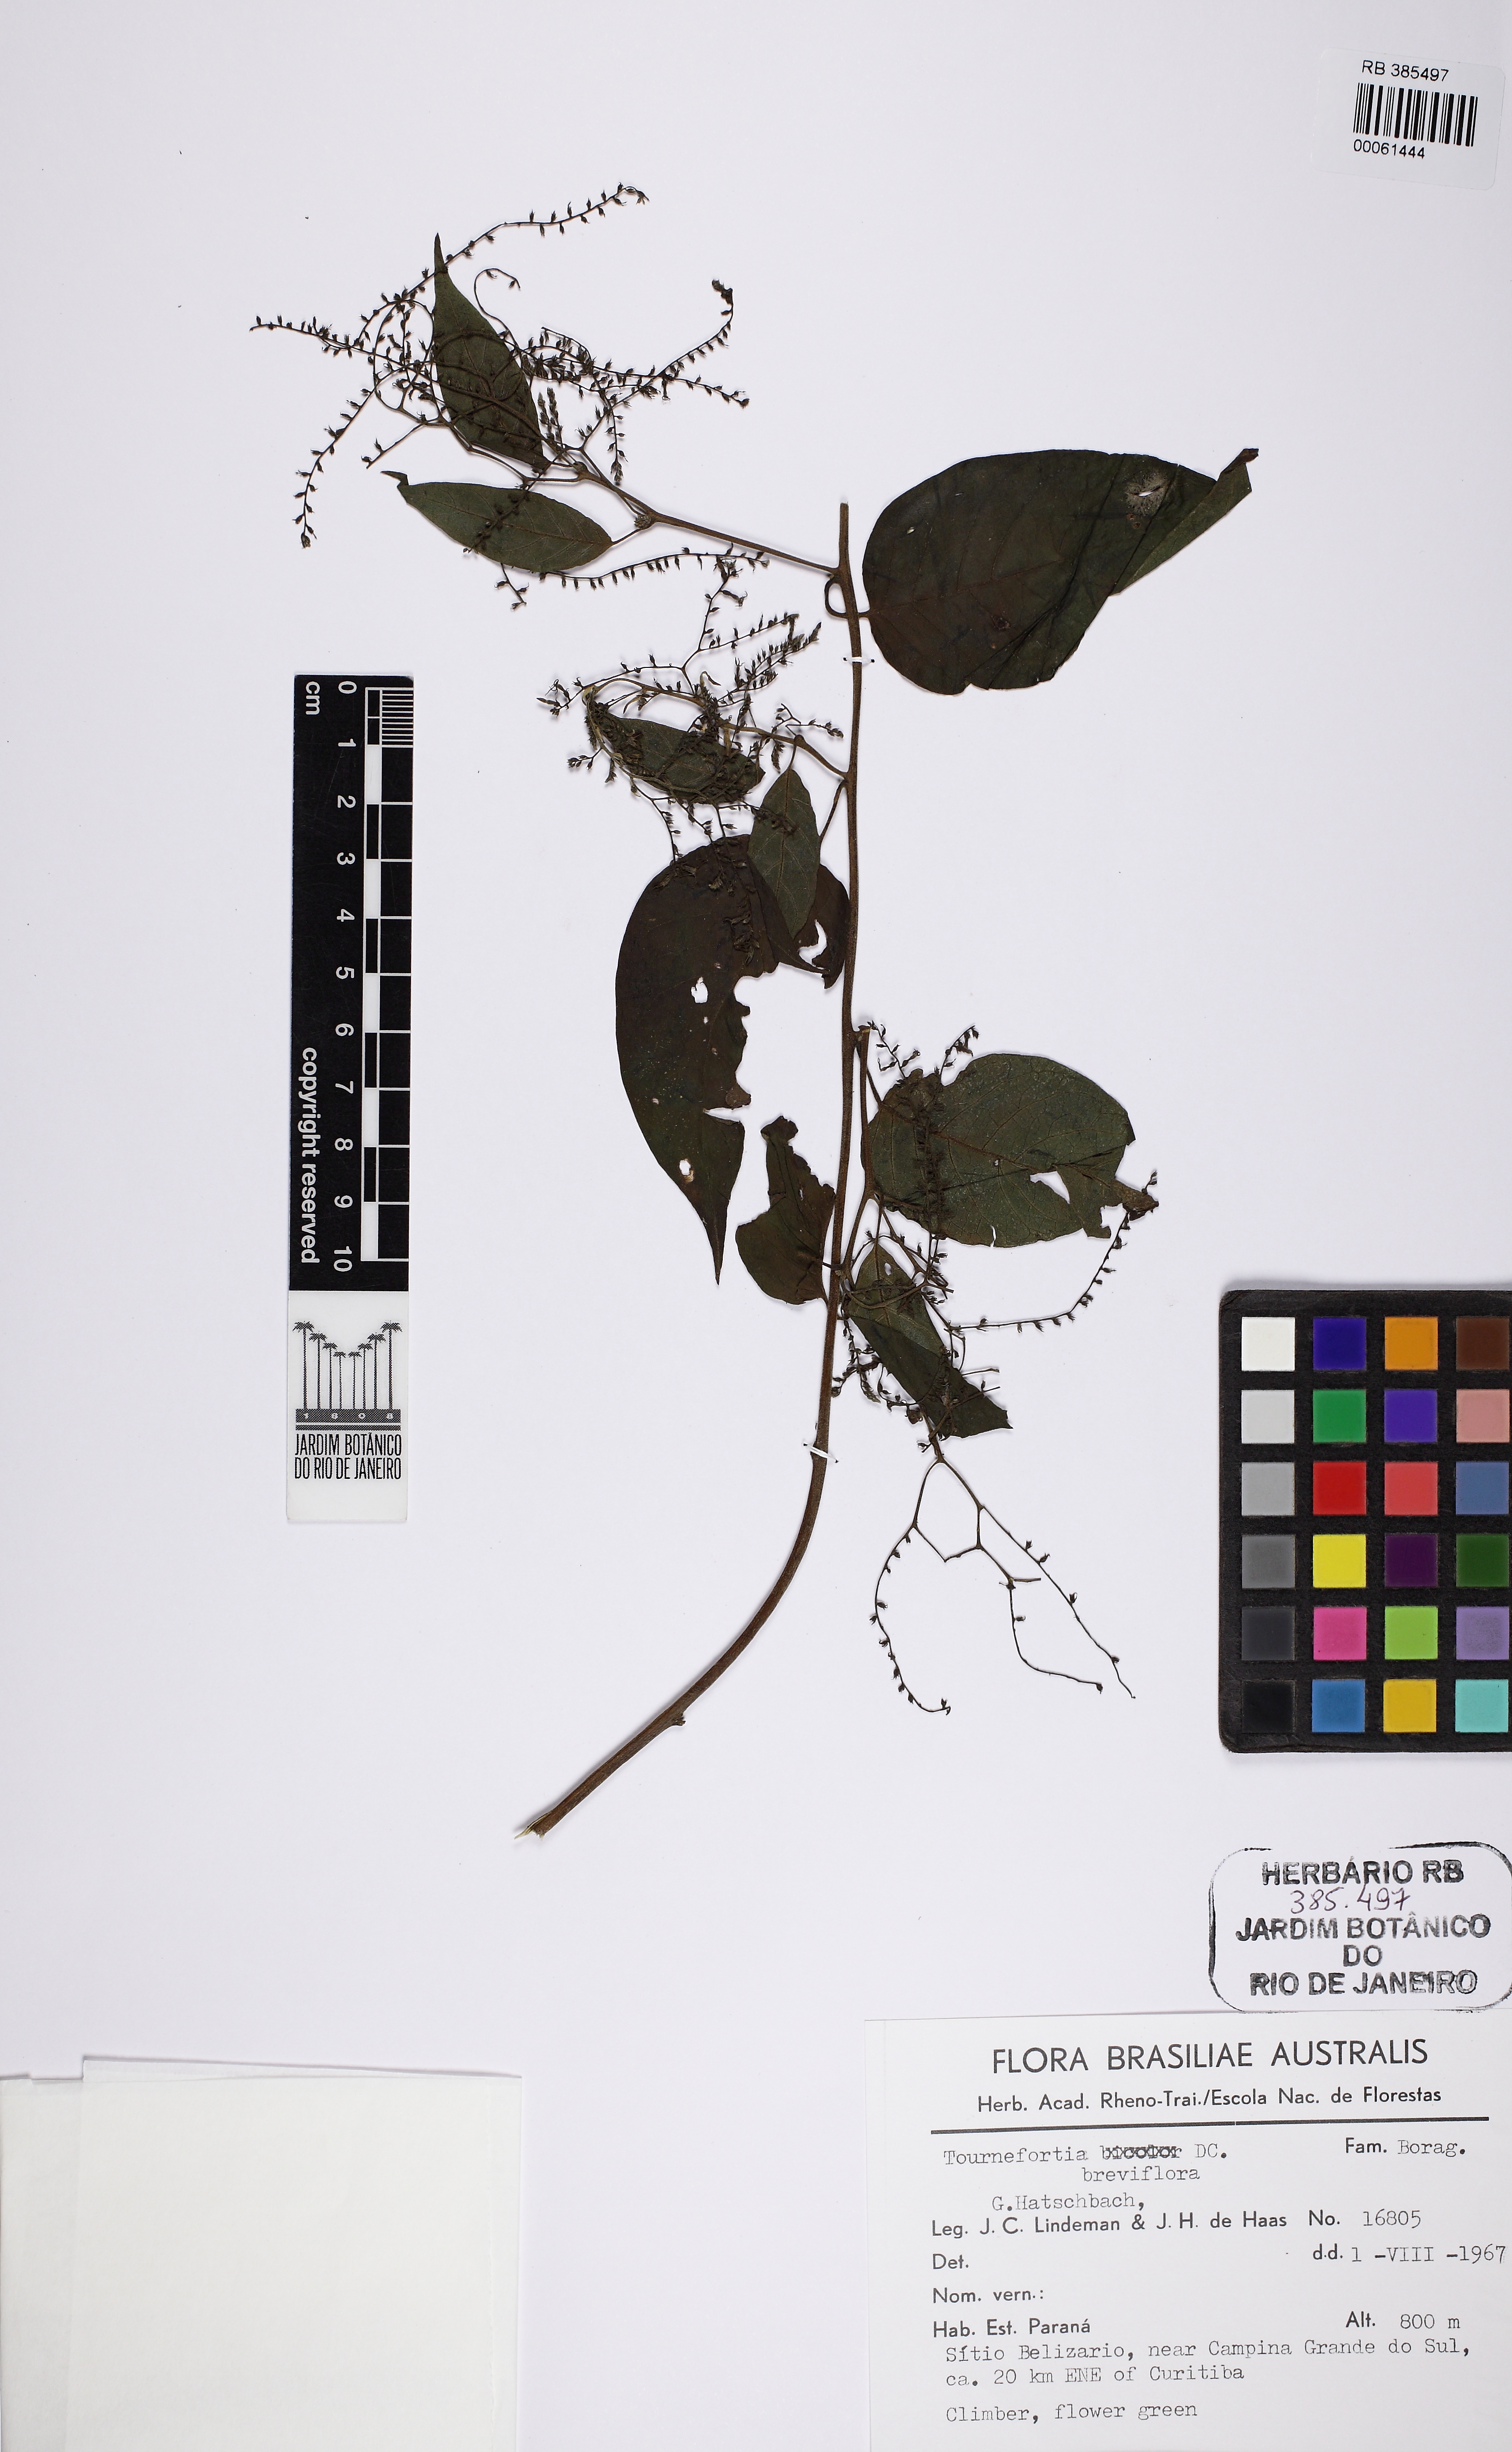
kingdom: Plantae
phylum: Tracheophyta
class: Magnoliopsida
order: Boraginales
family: Heliotropiaceae
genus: Myriopus
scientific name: Myriopus breviflorus
